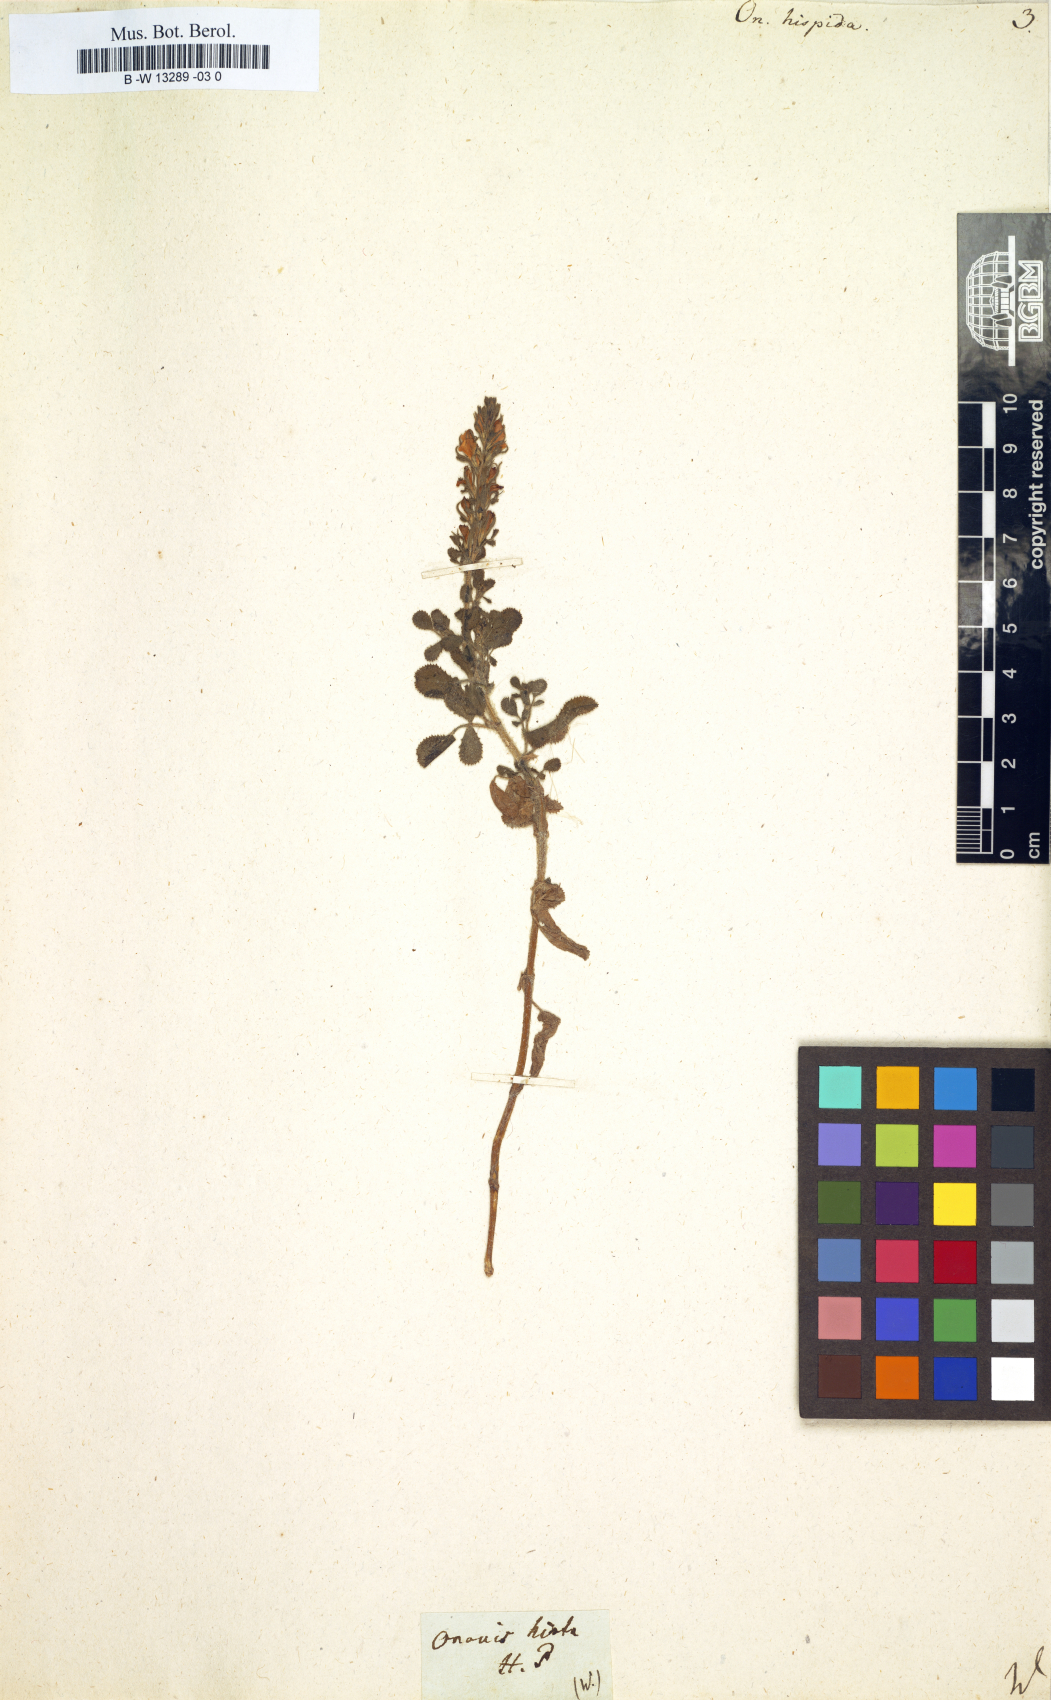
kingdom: Plantae
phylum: Tracheophyta
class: Magnoliopsida
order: Fabales
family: Fabaceae
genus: Ononis
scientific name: Ononis hispida
